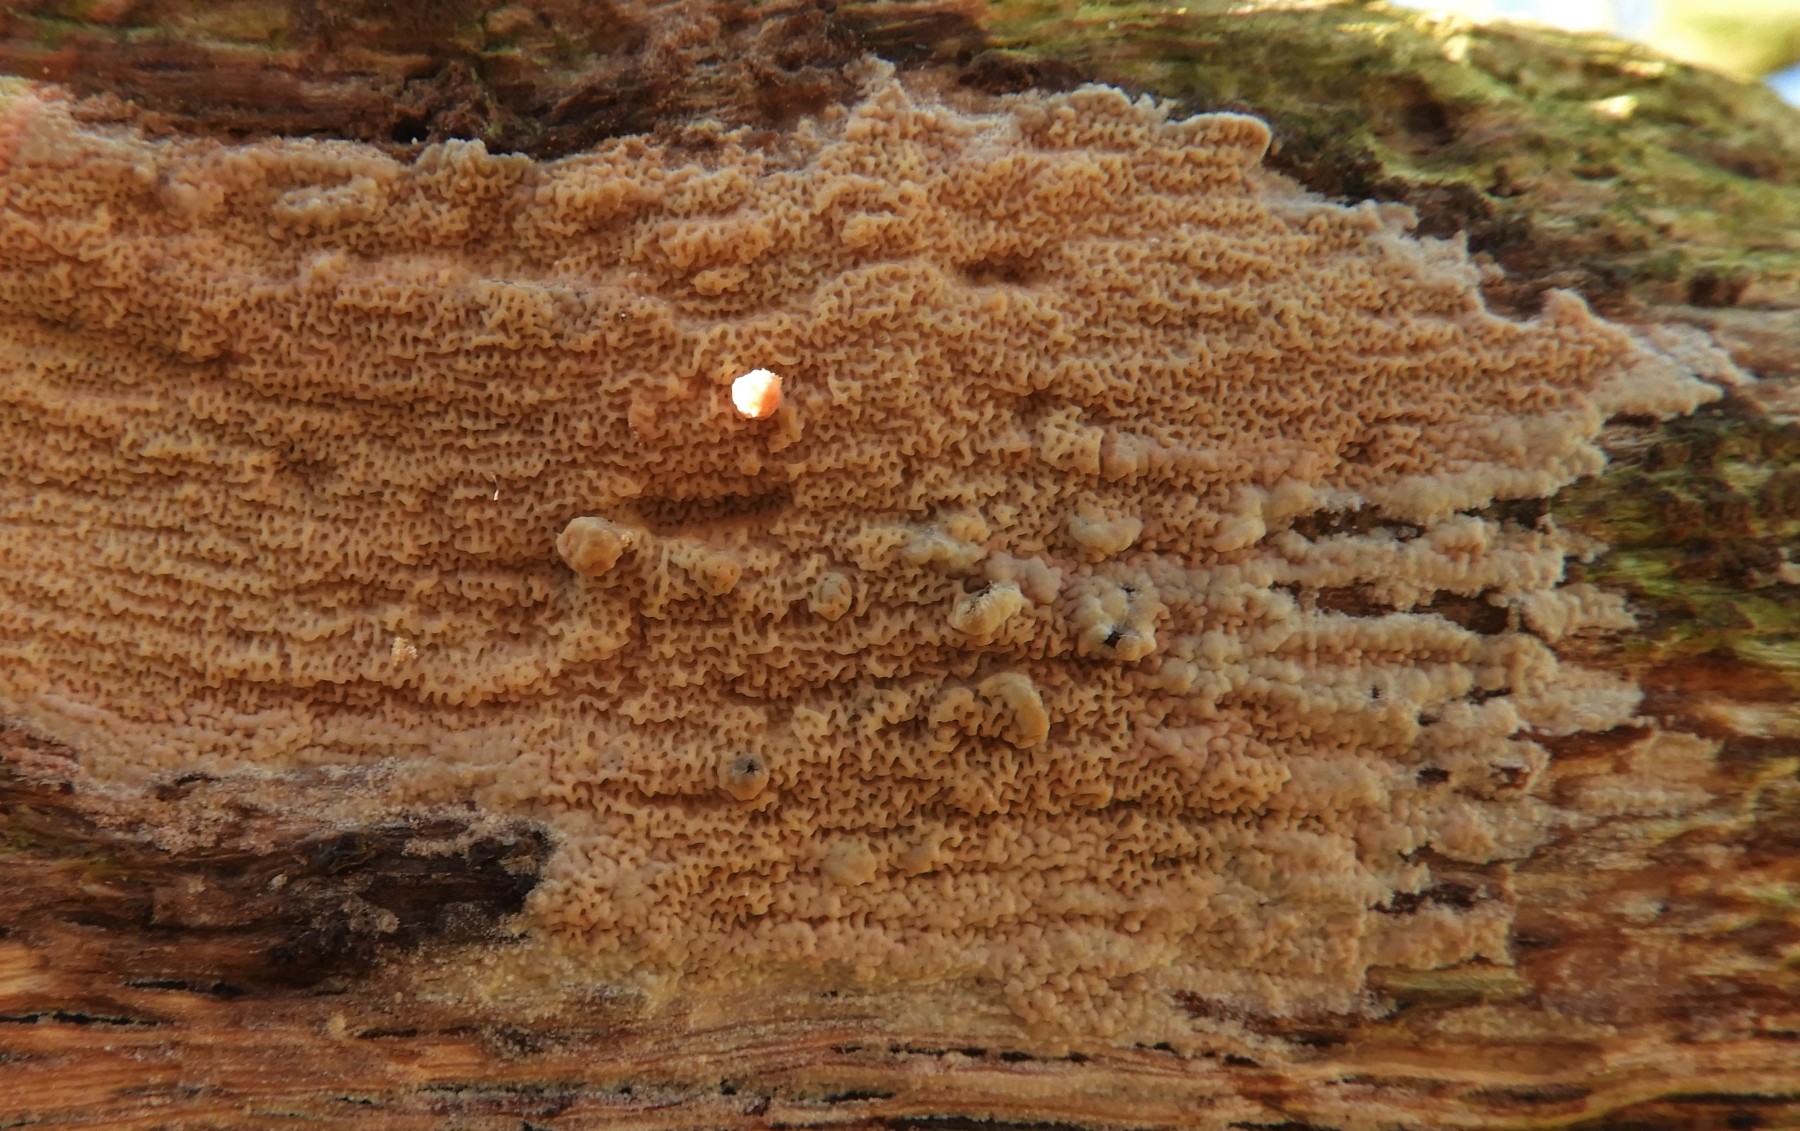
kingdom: Fungi
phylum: Basidiomycota
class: Agaricomycetes
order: Polyporales
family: Meruliaceae
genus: Phlebia
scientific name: Phlebia rufa
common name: ege-åresvamp
